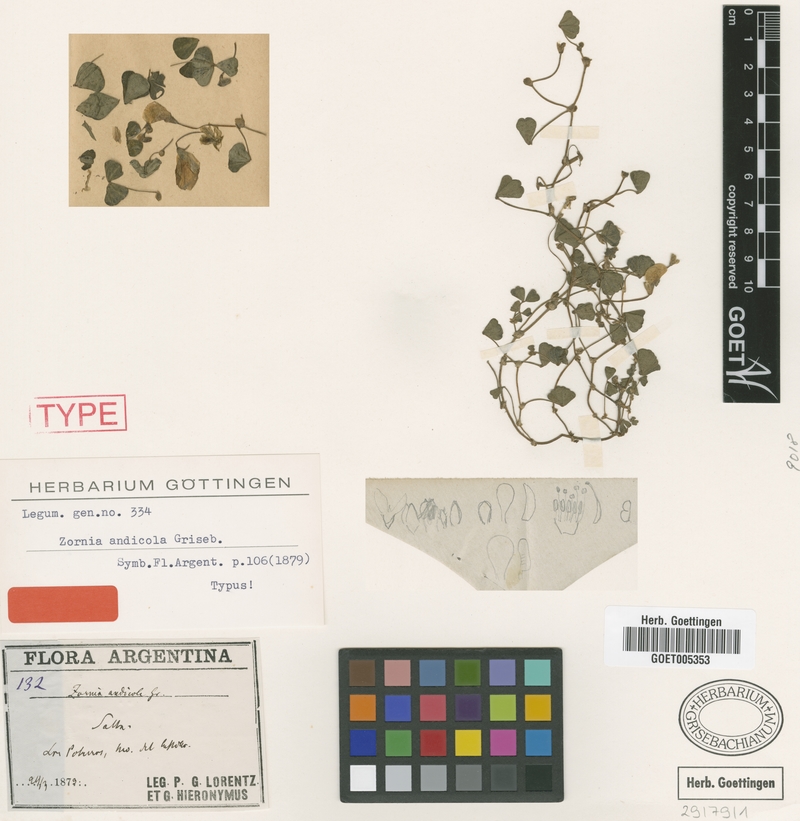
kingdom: Plantae
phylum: Tracheophyta
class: Magnoliopsida
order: Fabales
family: Fabaceae
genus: Amicia
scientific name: Amicia andicola
